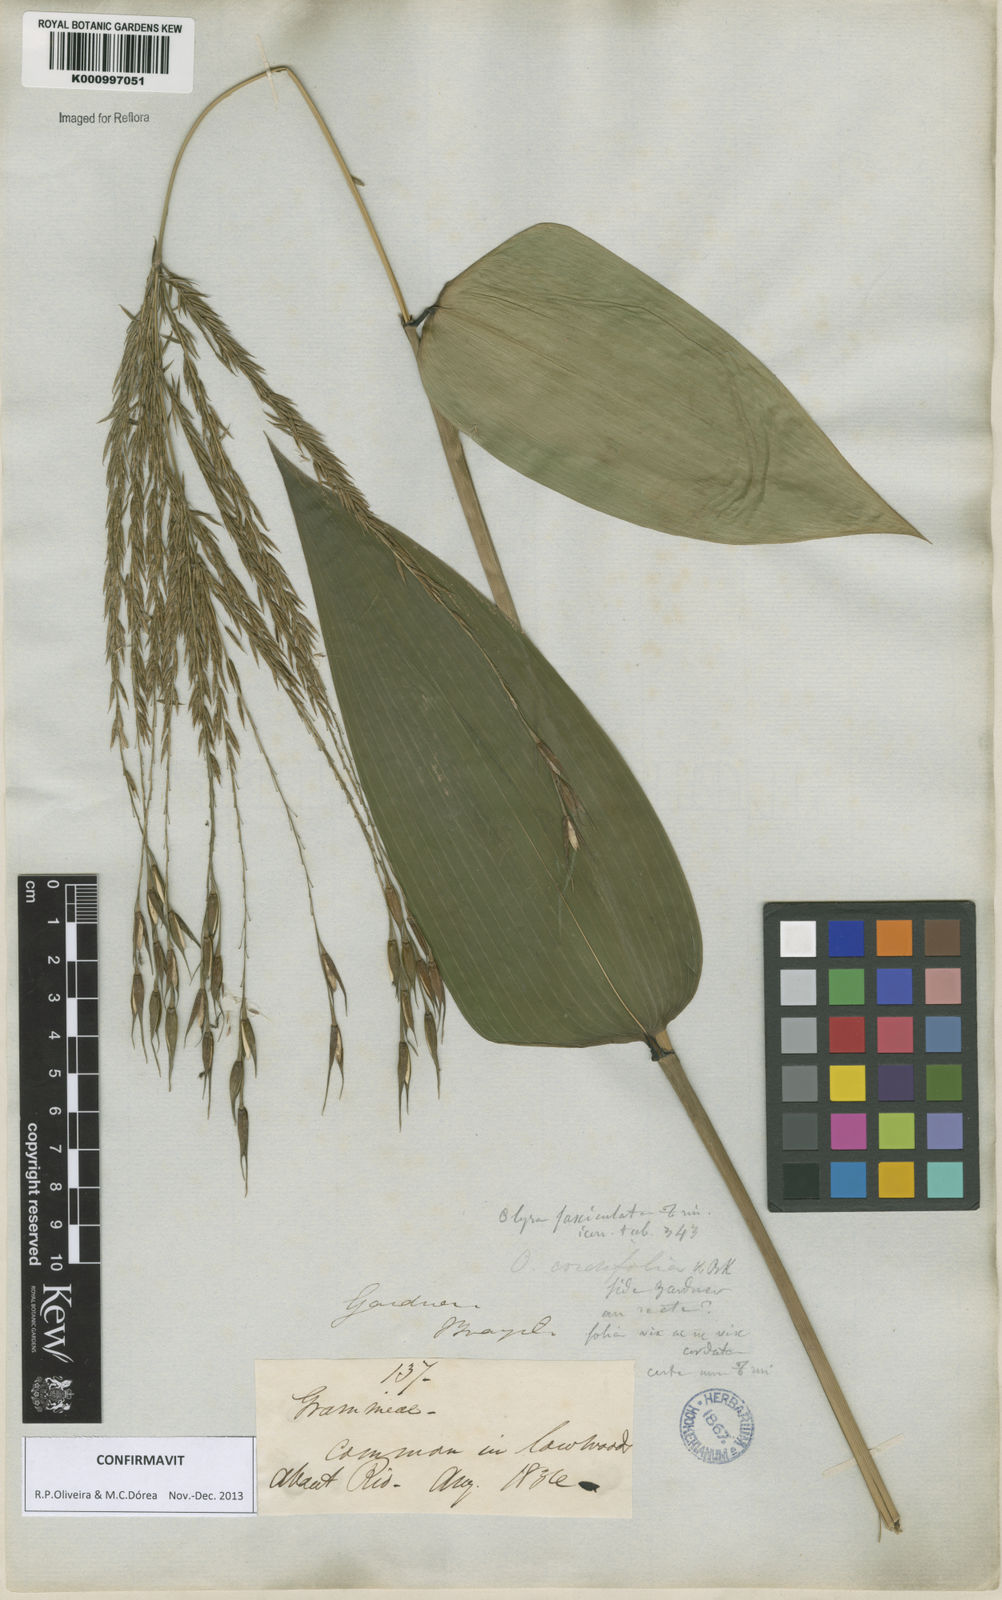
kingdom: Plantae
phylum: Tracheophyta
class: Liliopsida
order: Poales
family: Poaceae
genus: Olyra
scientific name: Olyra fasciculata
